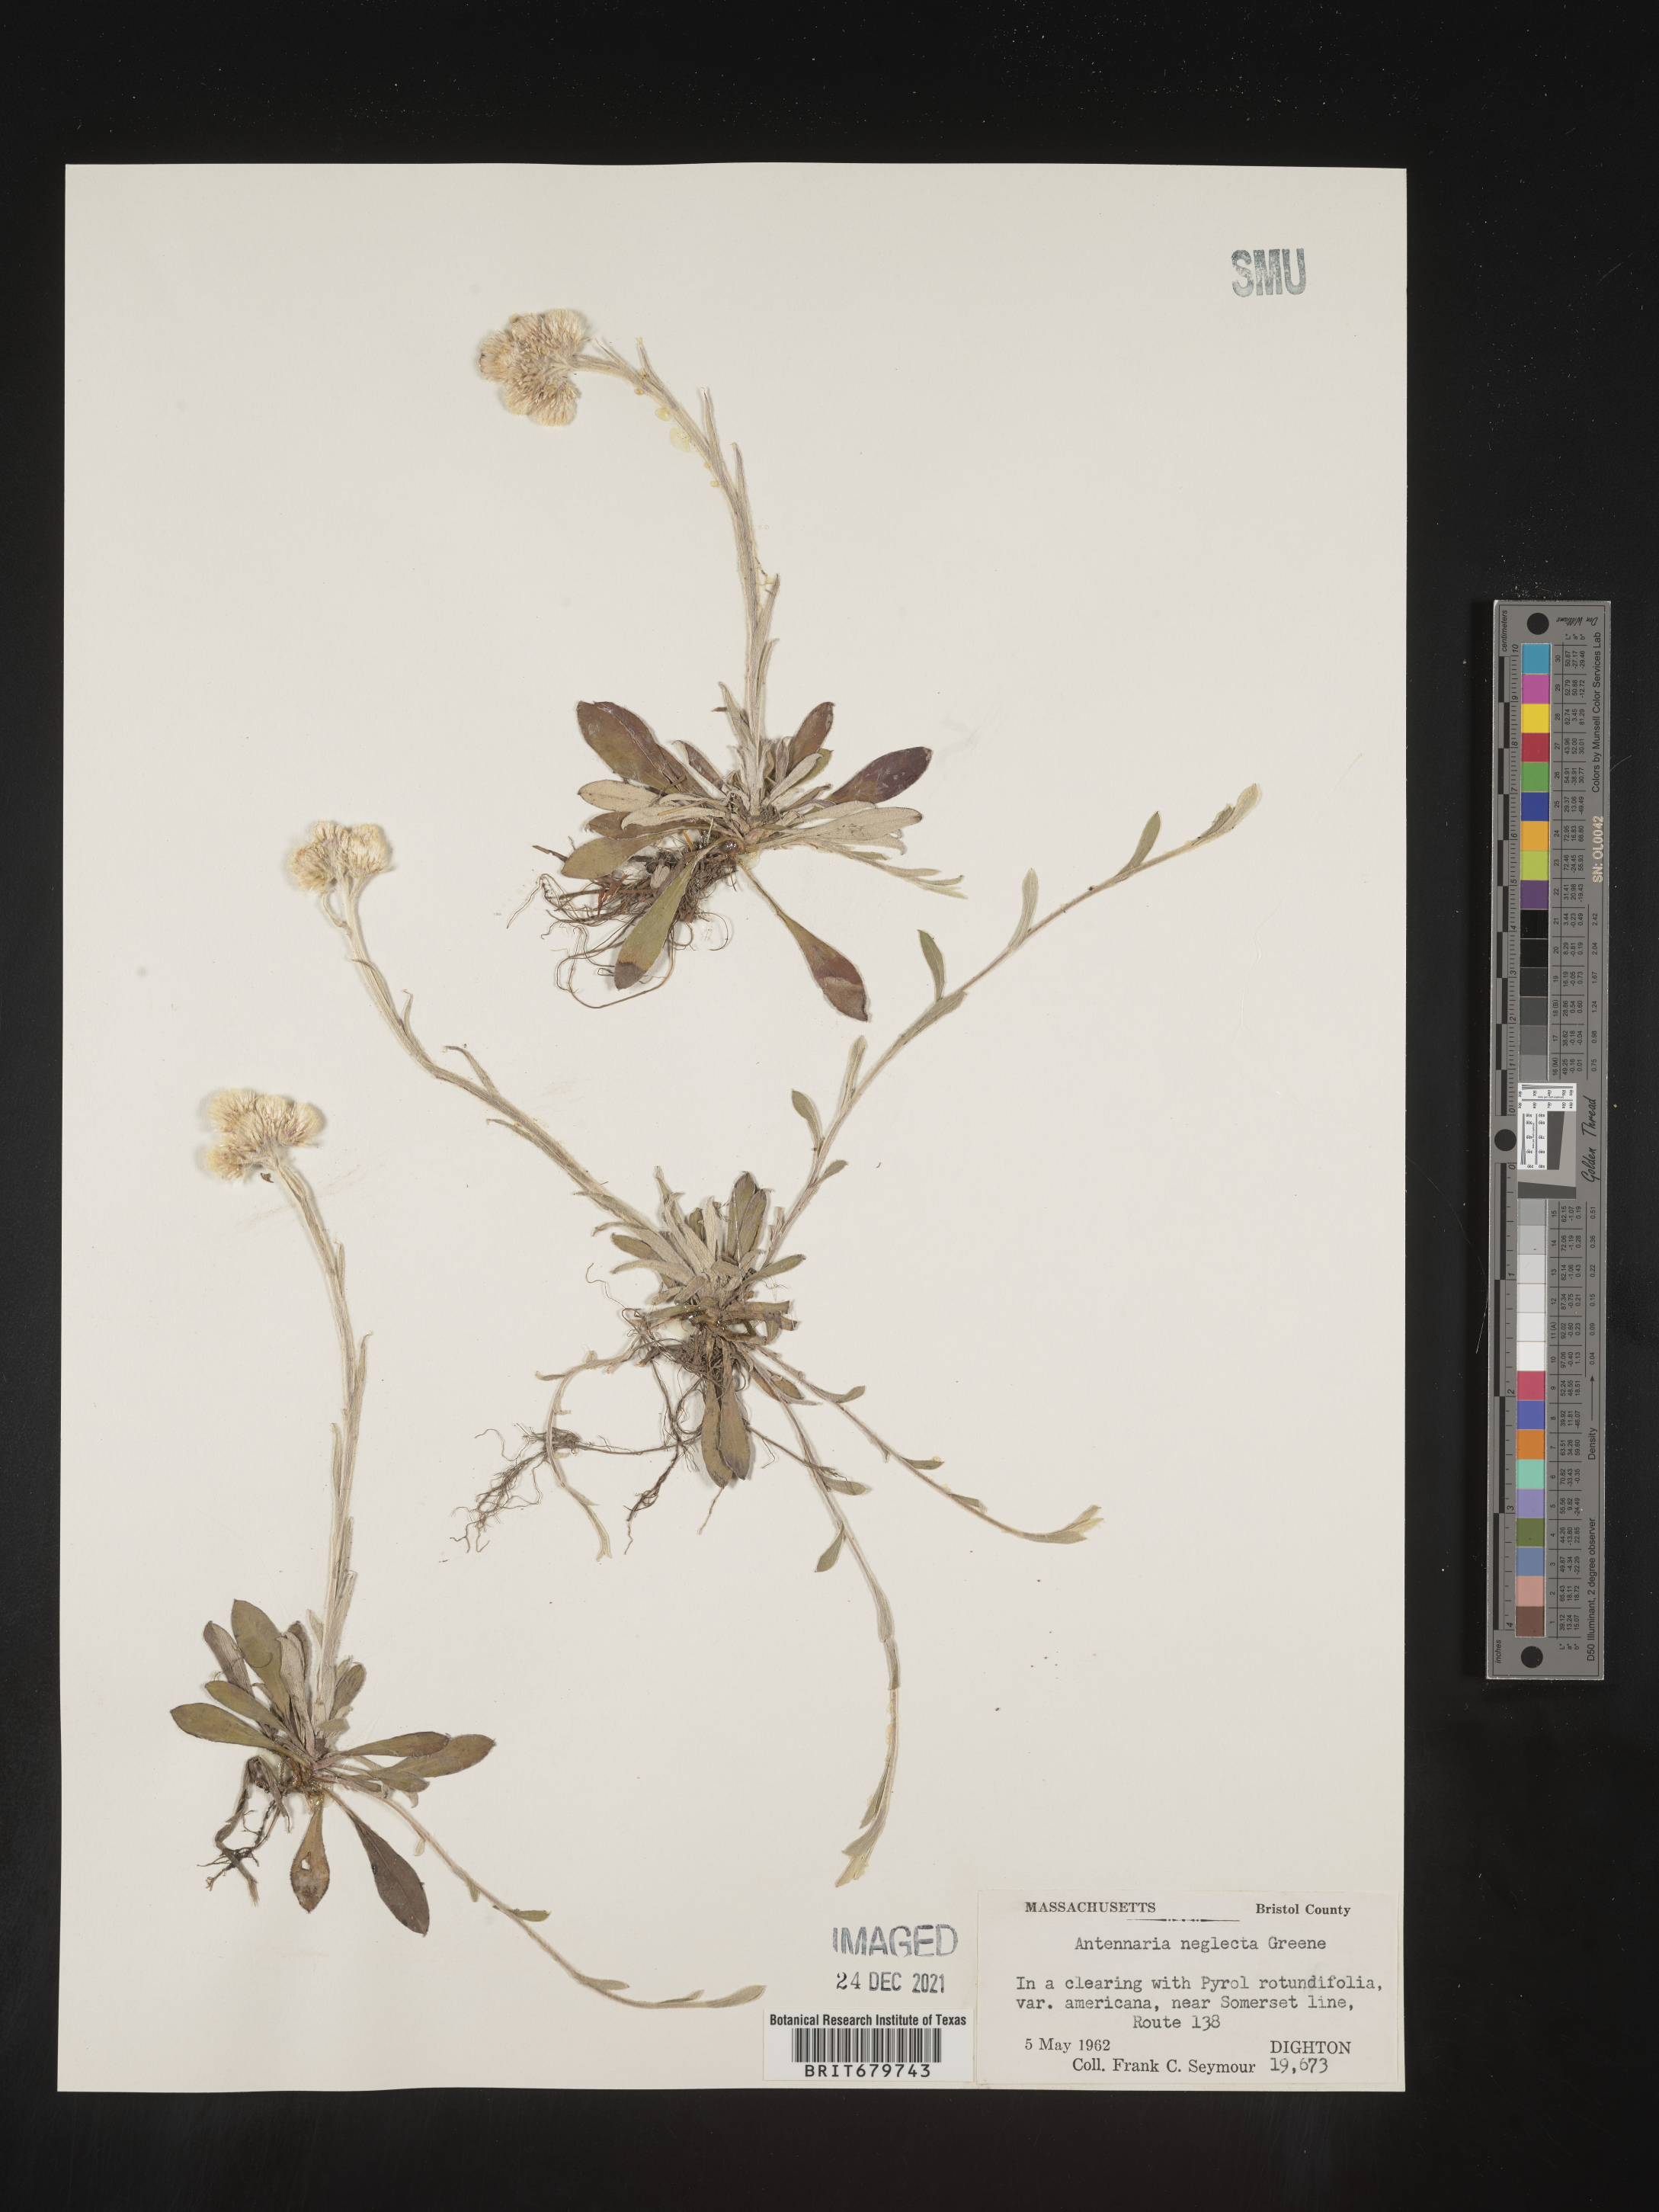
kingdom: Plantae
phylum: Tracheophyta
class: Magnoliopsida
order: Asterales
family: Asteraceae
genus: Antennaria
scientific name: Antennaria neglecta
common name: Field pussytoes
